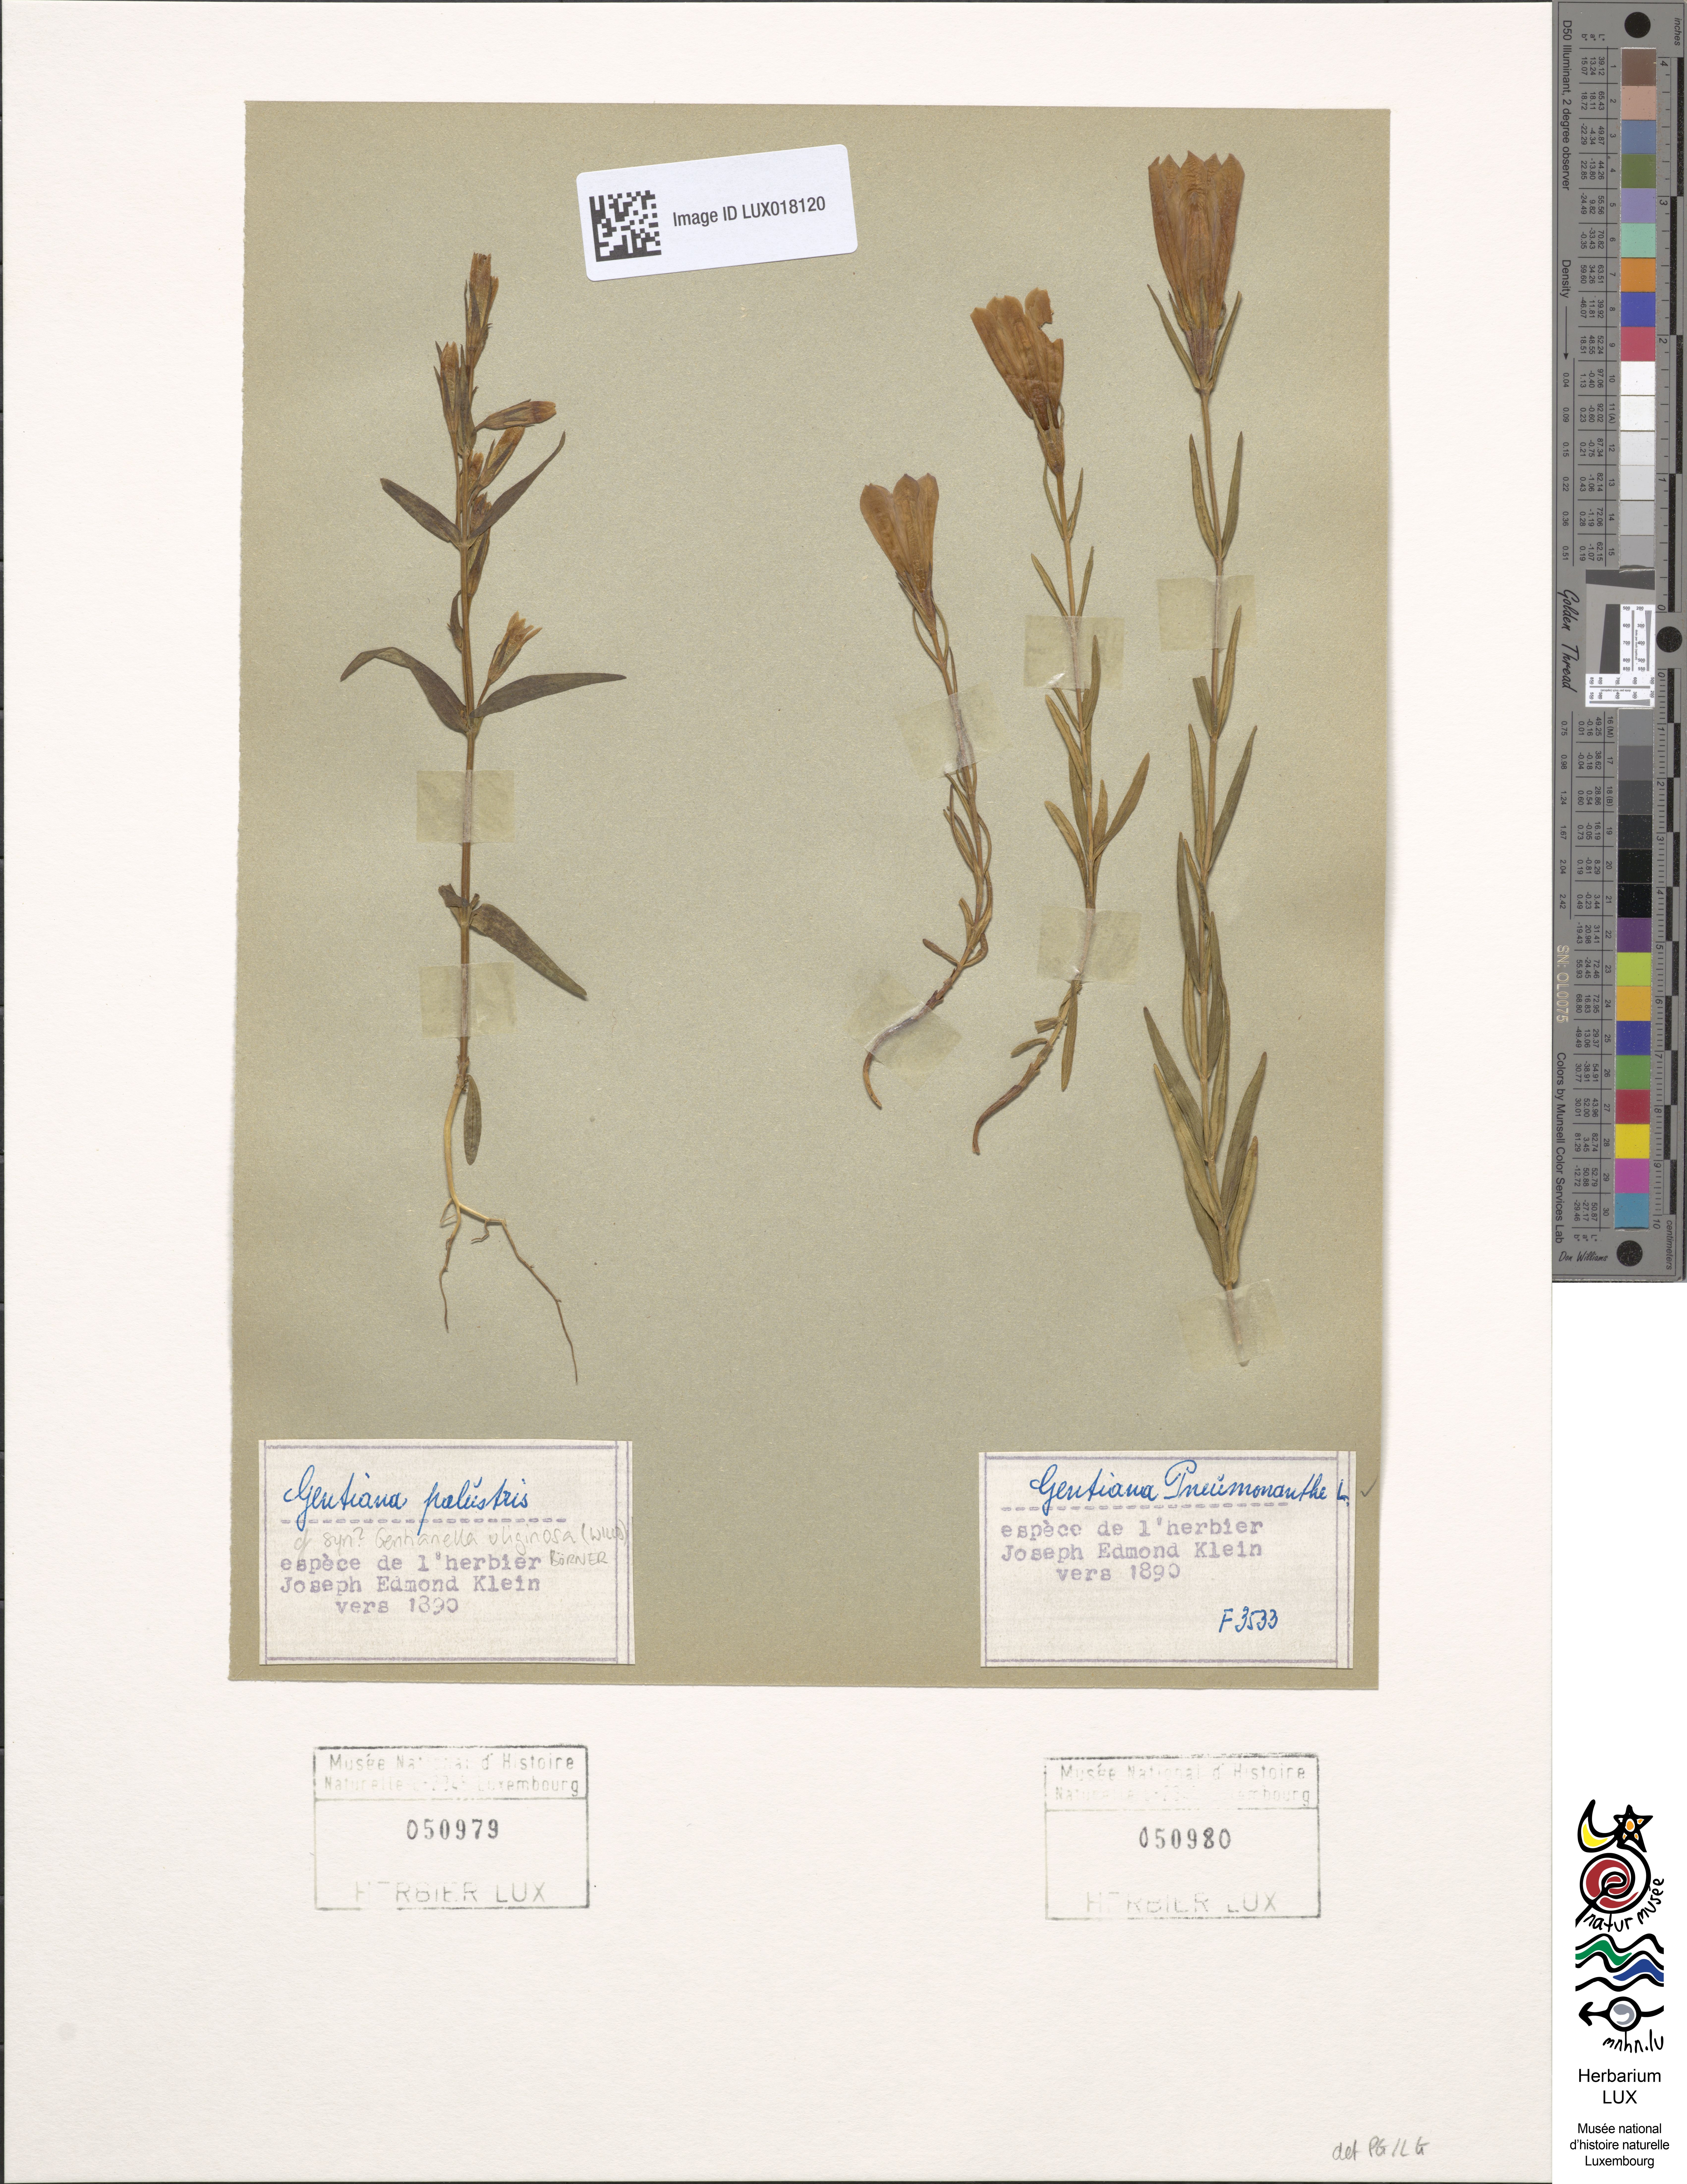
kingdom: Plantae
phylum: Tracheophyta
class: Magnoliopsida
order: Gentianales
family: Gentianaceae
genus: Gentiana
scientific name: Gentiana pneumonanthe
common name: Marsh gentian
